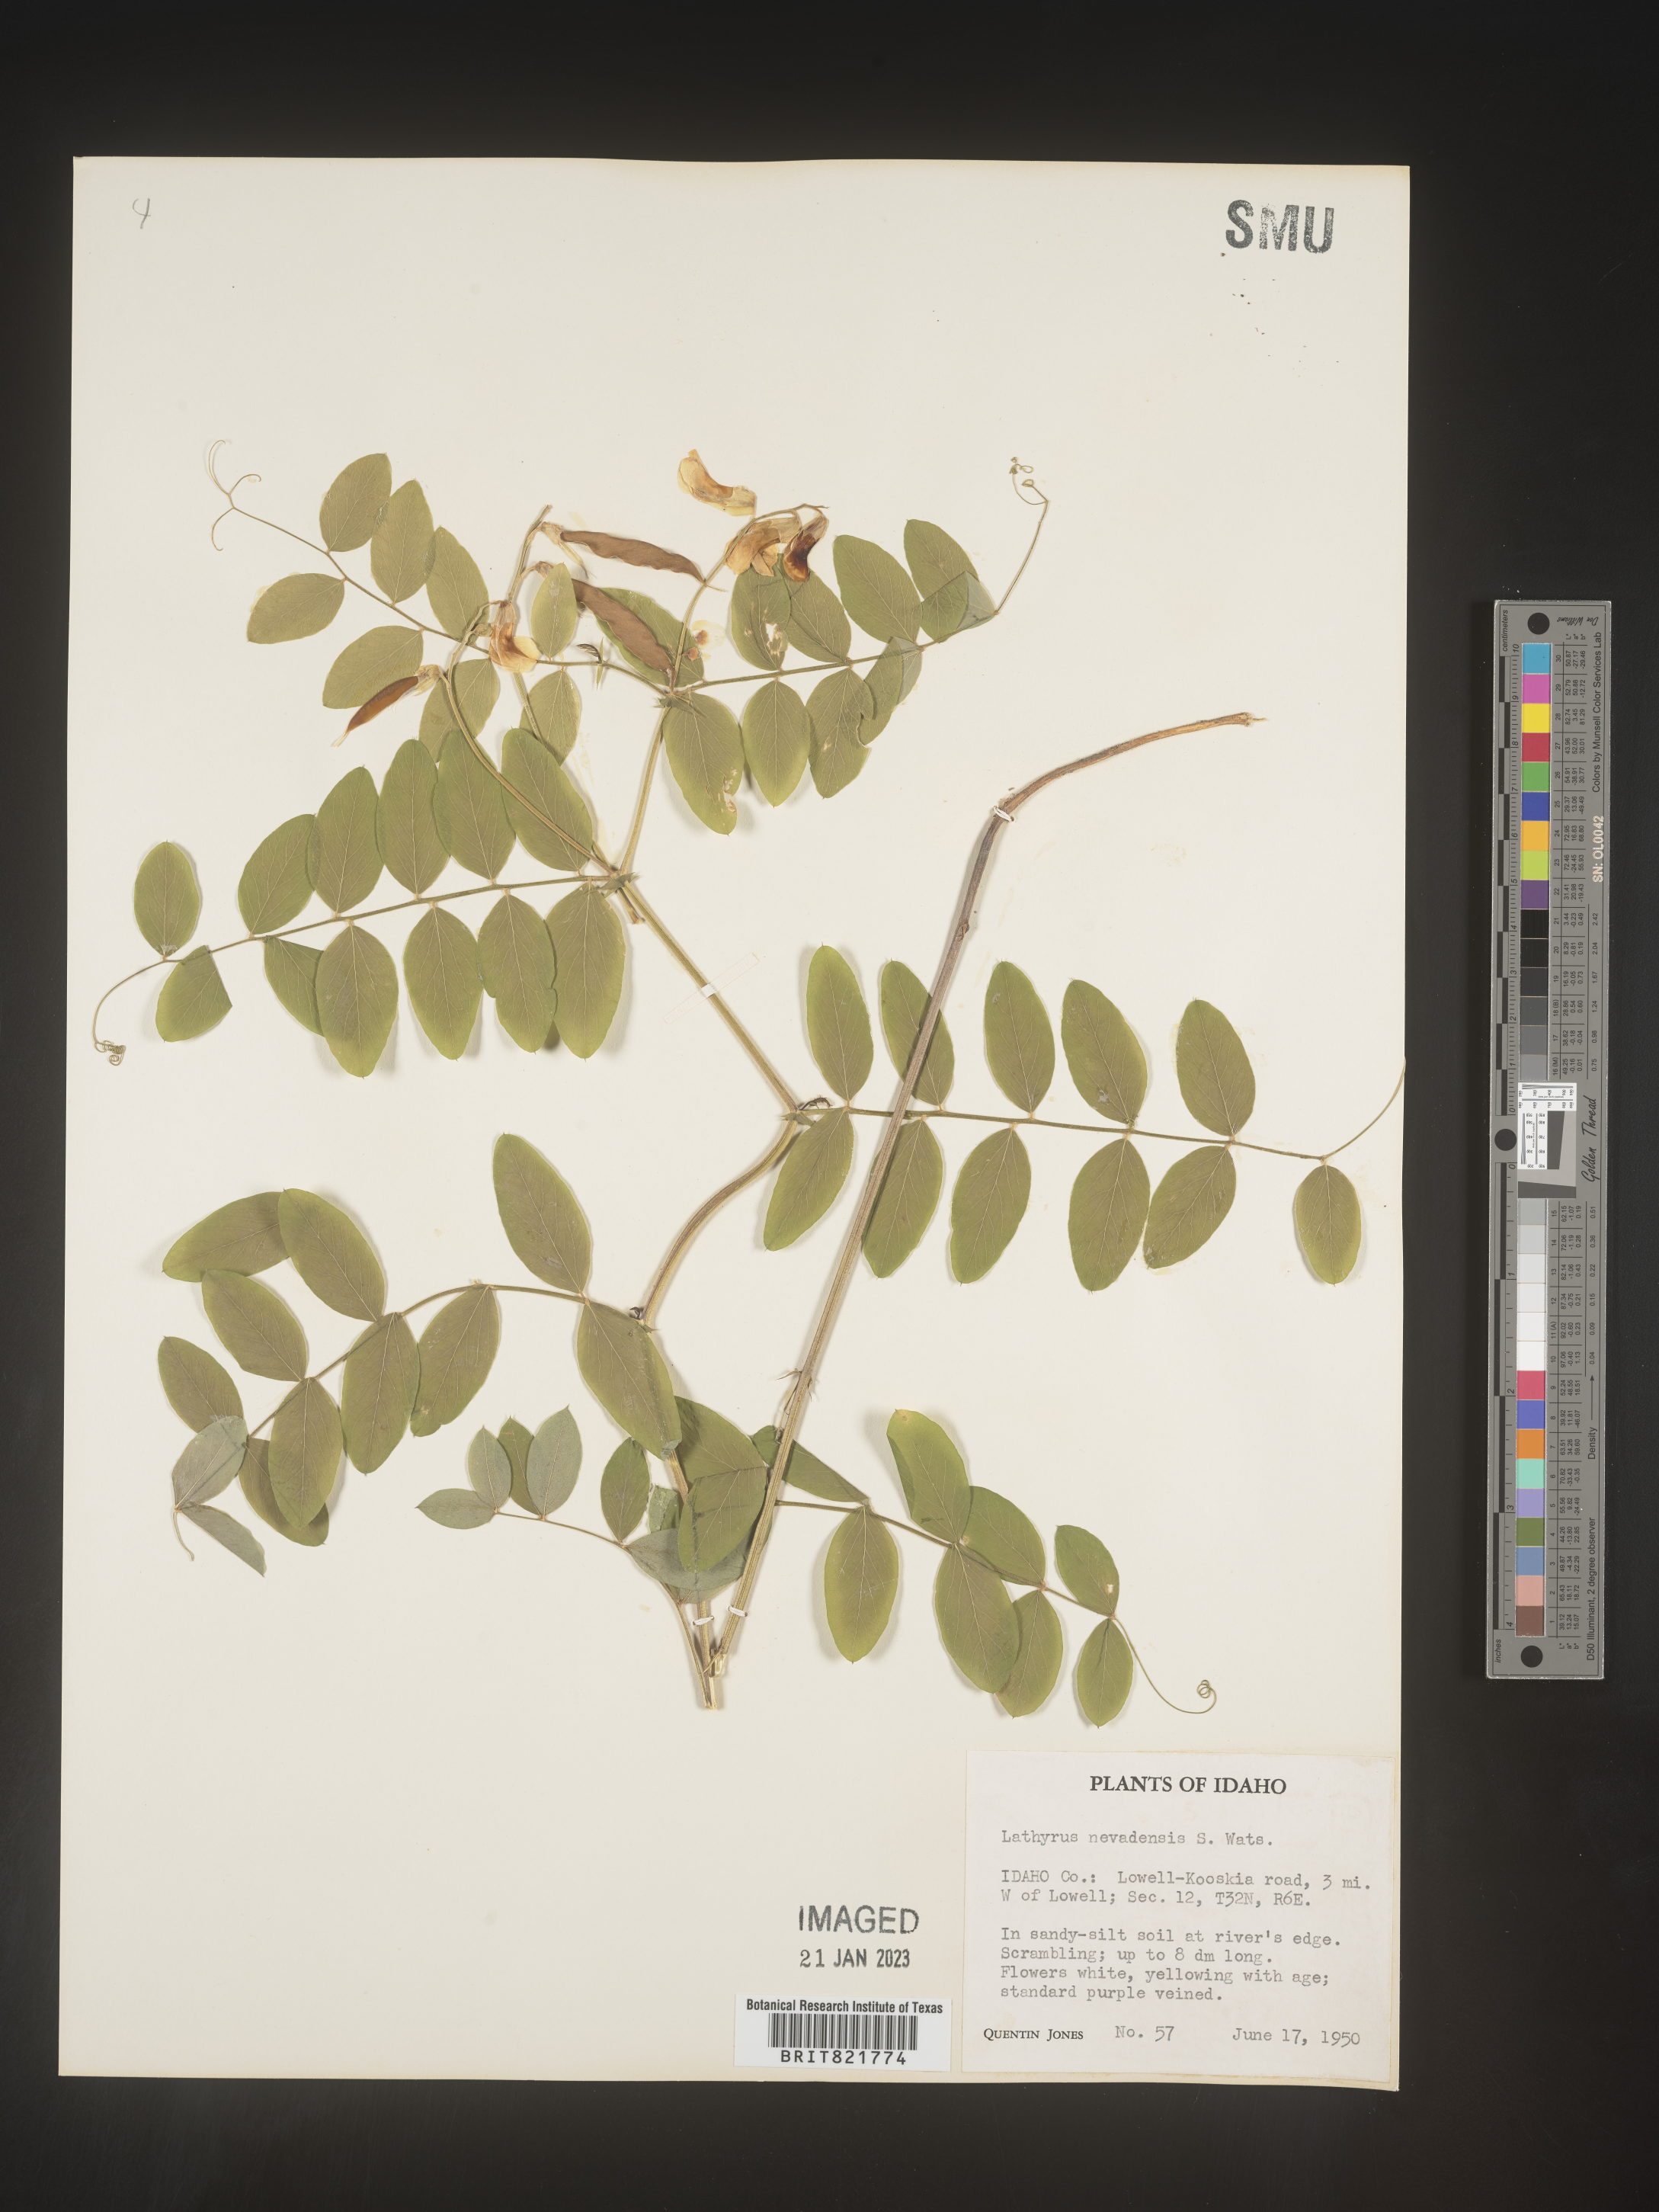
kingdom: Plantae
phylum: Tracheophyta
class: Magnoliopsida
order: Fabales
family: Fabaceae
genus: Lathyrus
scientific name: Lathyrus
